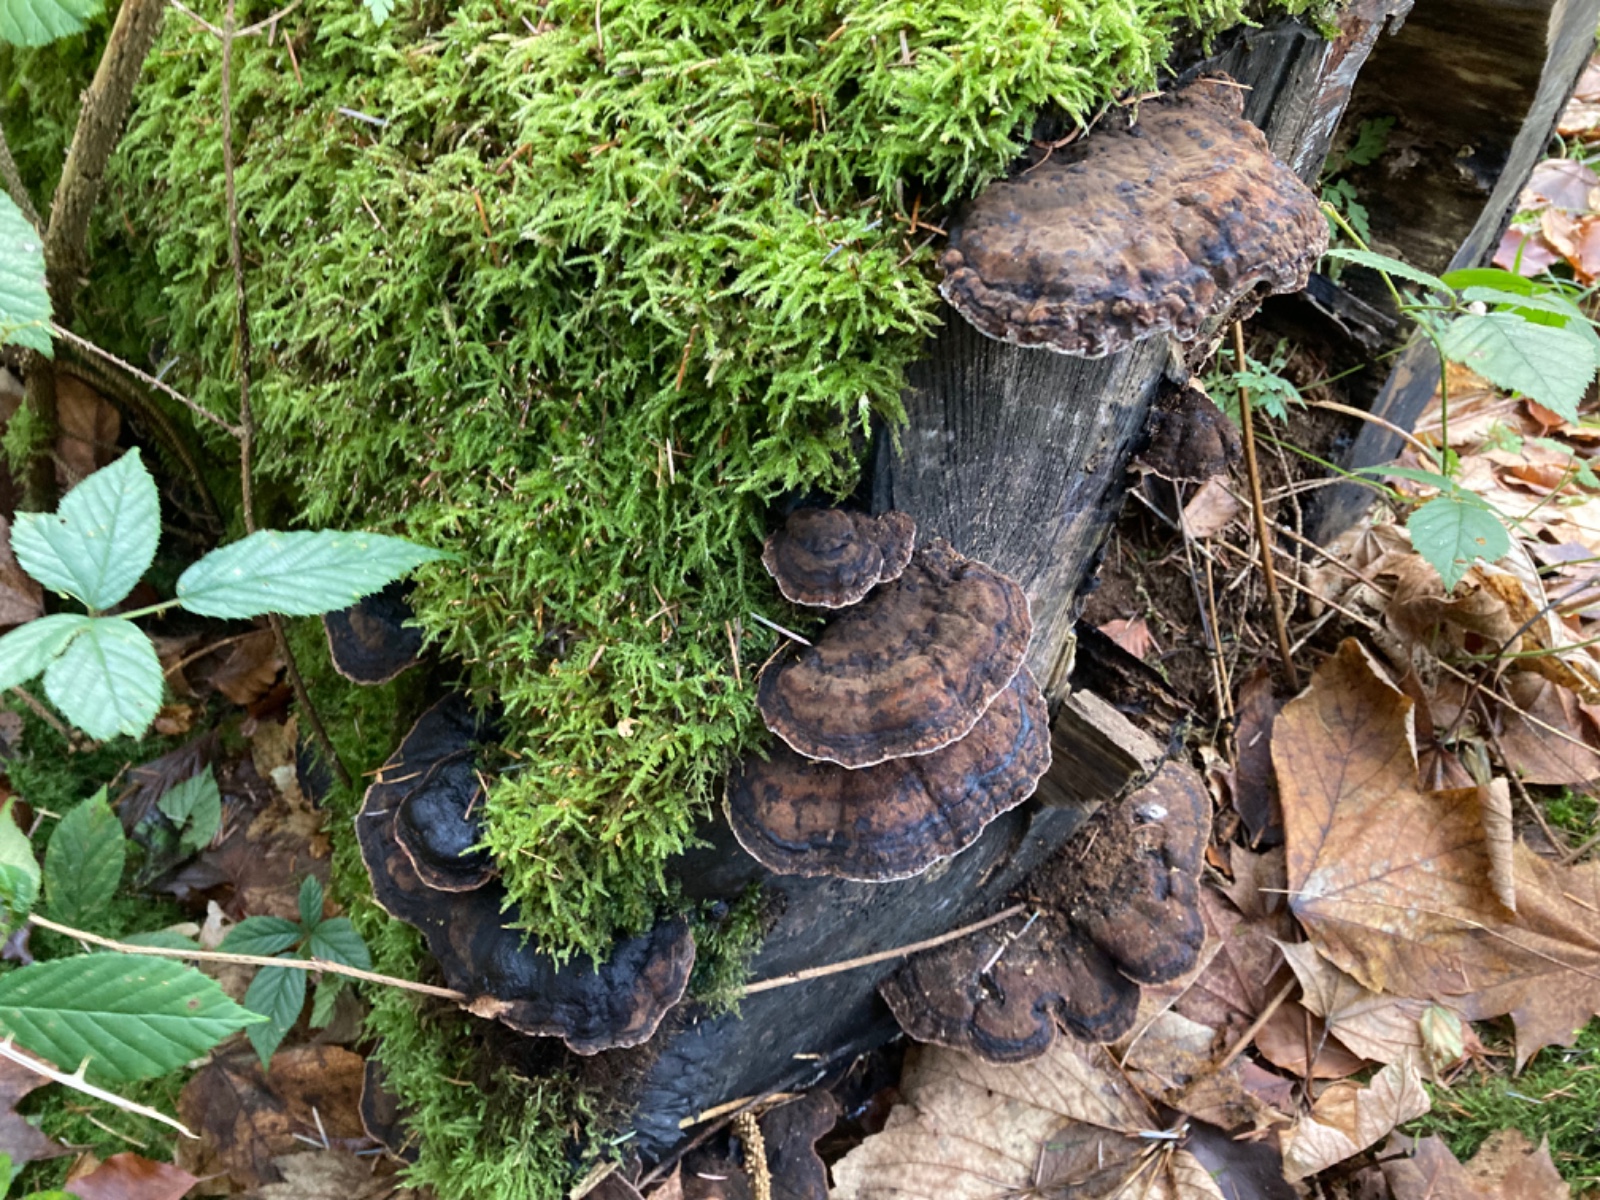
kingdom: Fungi
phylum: Basidiomycota
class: Agaricomycetes
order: Polyporales
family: Ischnodermataceae
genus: Ischnoderma
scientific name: Ischnoderma resinosum
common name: løv-tjæreporesvamp
